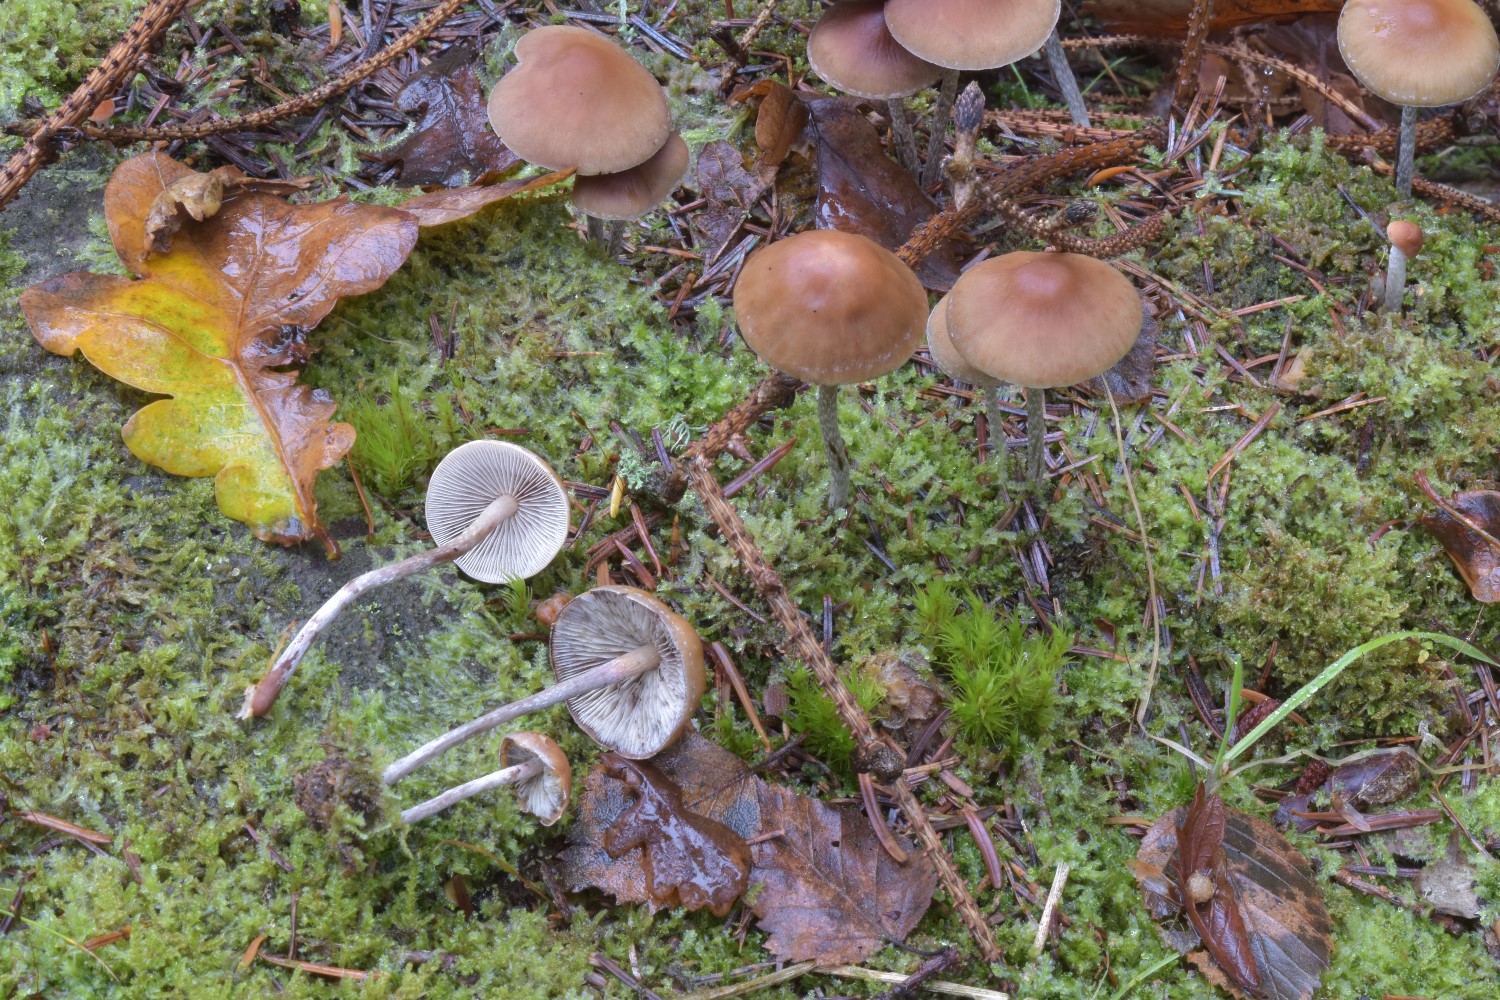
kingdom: Fungi
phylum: Basidiomycota
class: Agaricomycetes
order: Agaricales
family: Strophariaceae
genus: Hypholoma
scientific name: Hypholoma marginatum
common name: enlig svovlhat
